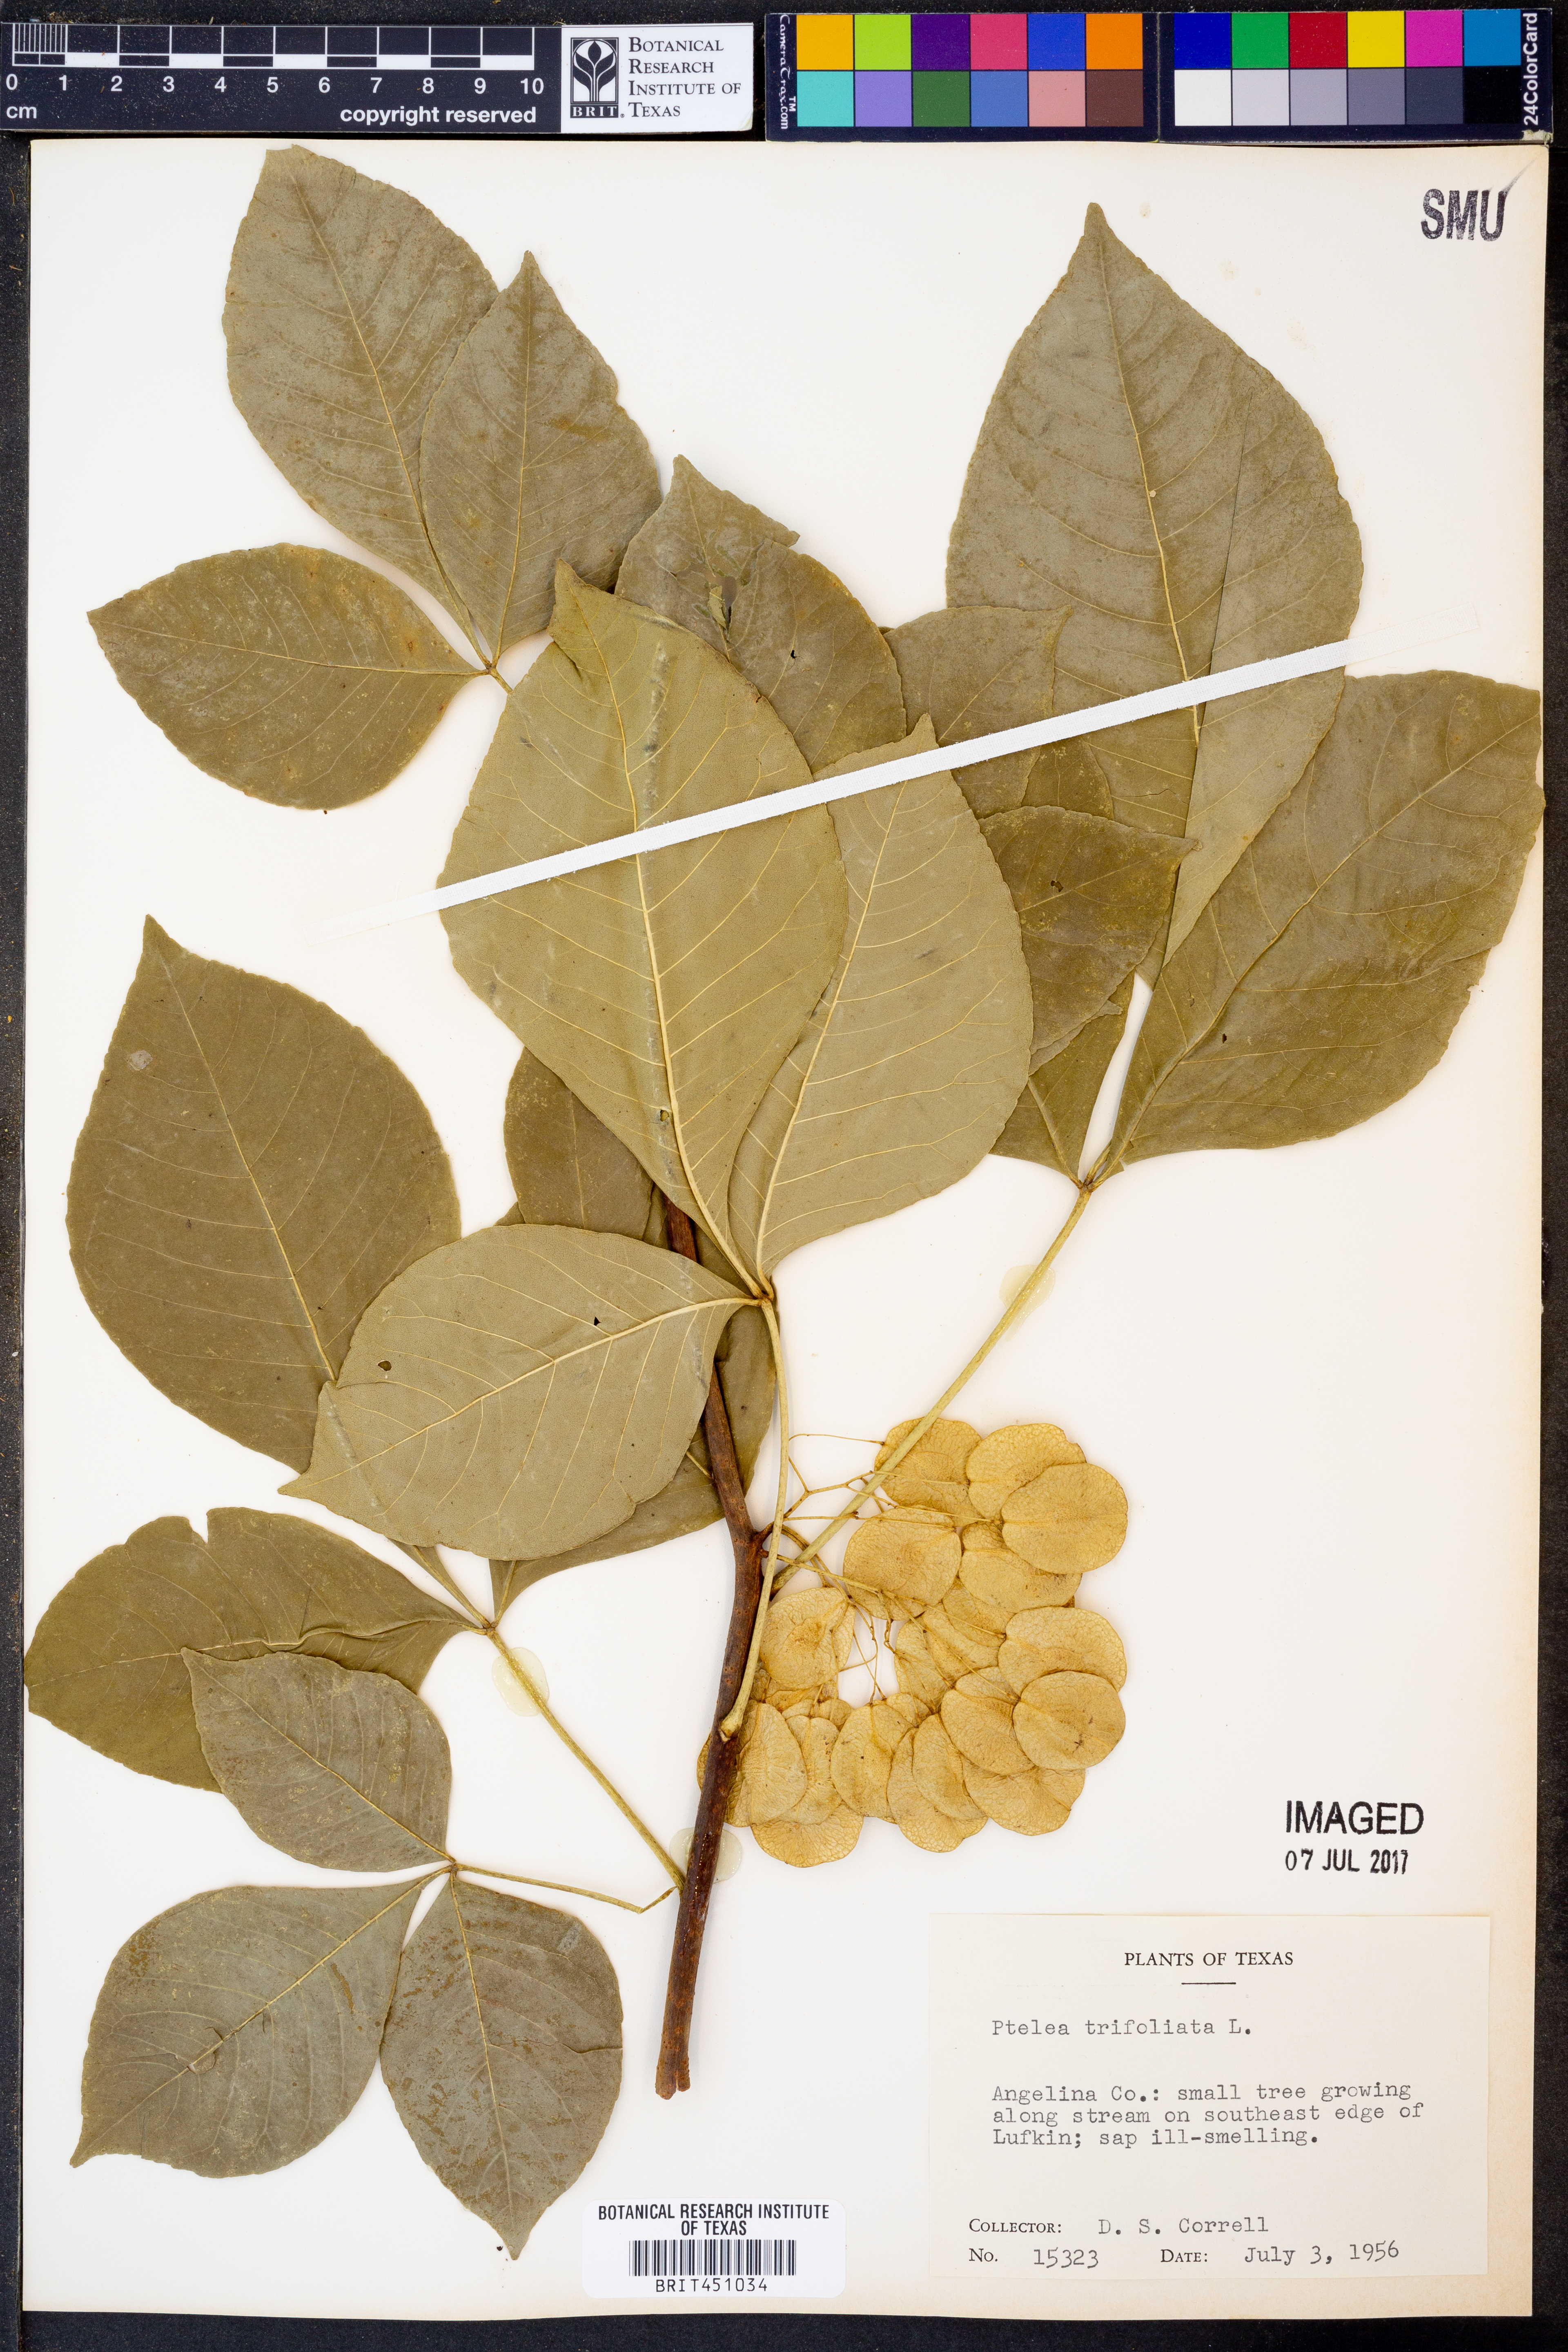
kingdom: Plantae
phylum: Tracheophyta
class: Magnoliopsida
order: Sapindales
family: Rutaceae
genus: Ptelea
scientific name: Ptelea trifoliata
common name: Common hop-tree
